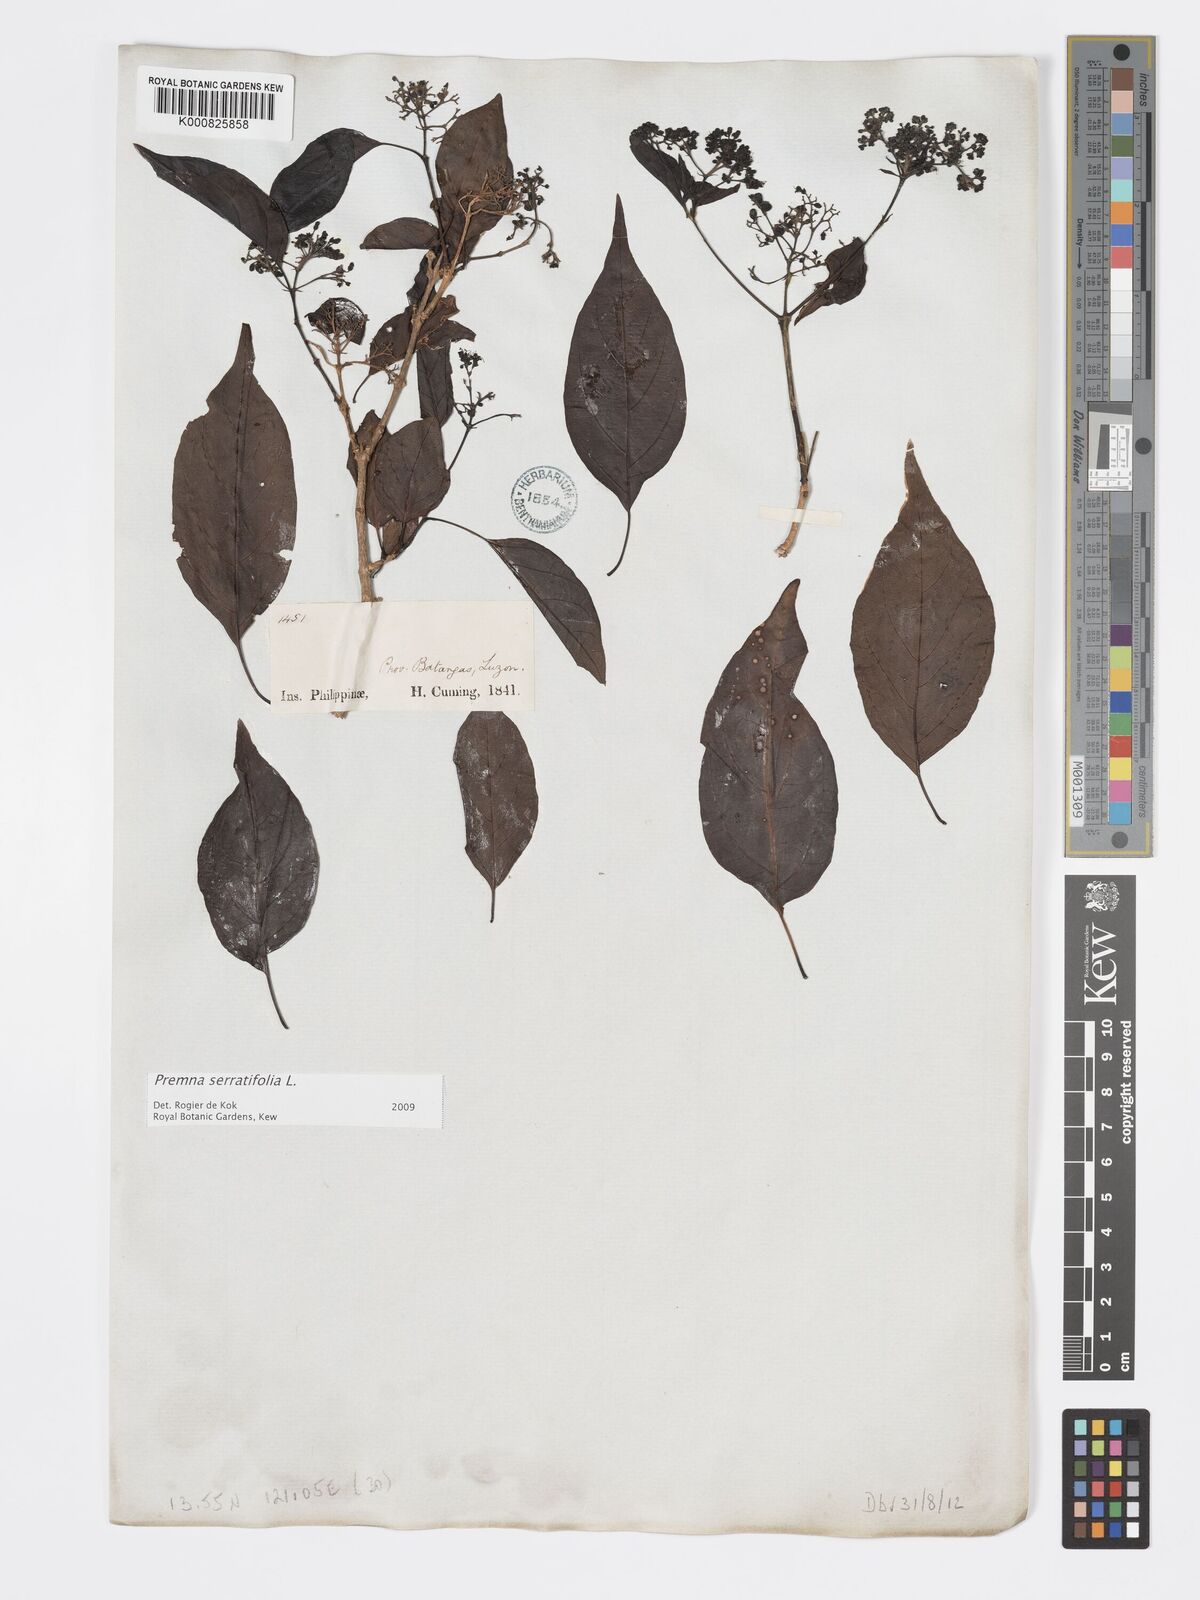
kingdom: Plantae
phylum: Tracheophyta
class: Magnoliopsida
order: Lamiales
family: Lamiaceae
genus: Premna
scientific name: Premna serratifolia
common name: Bastard guelder
